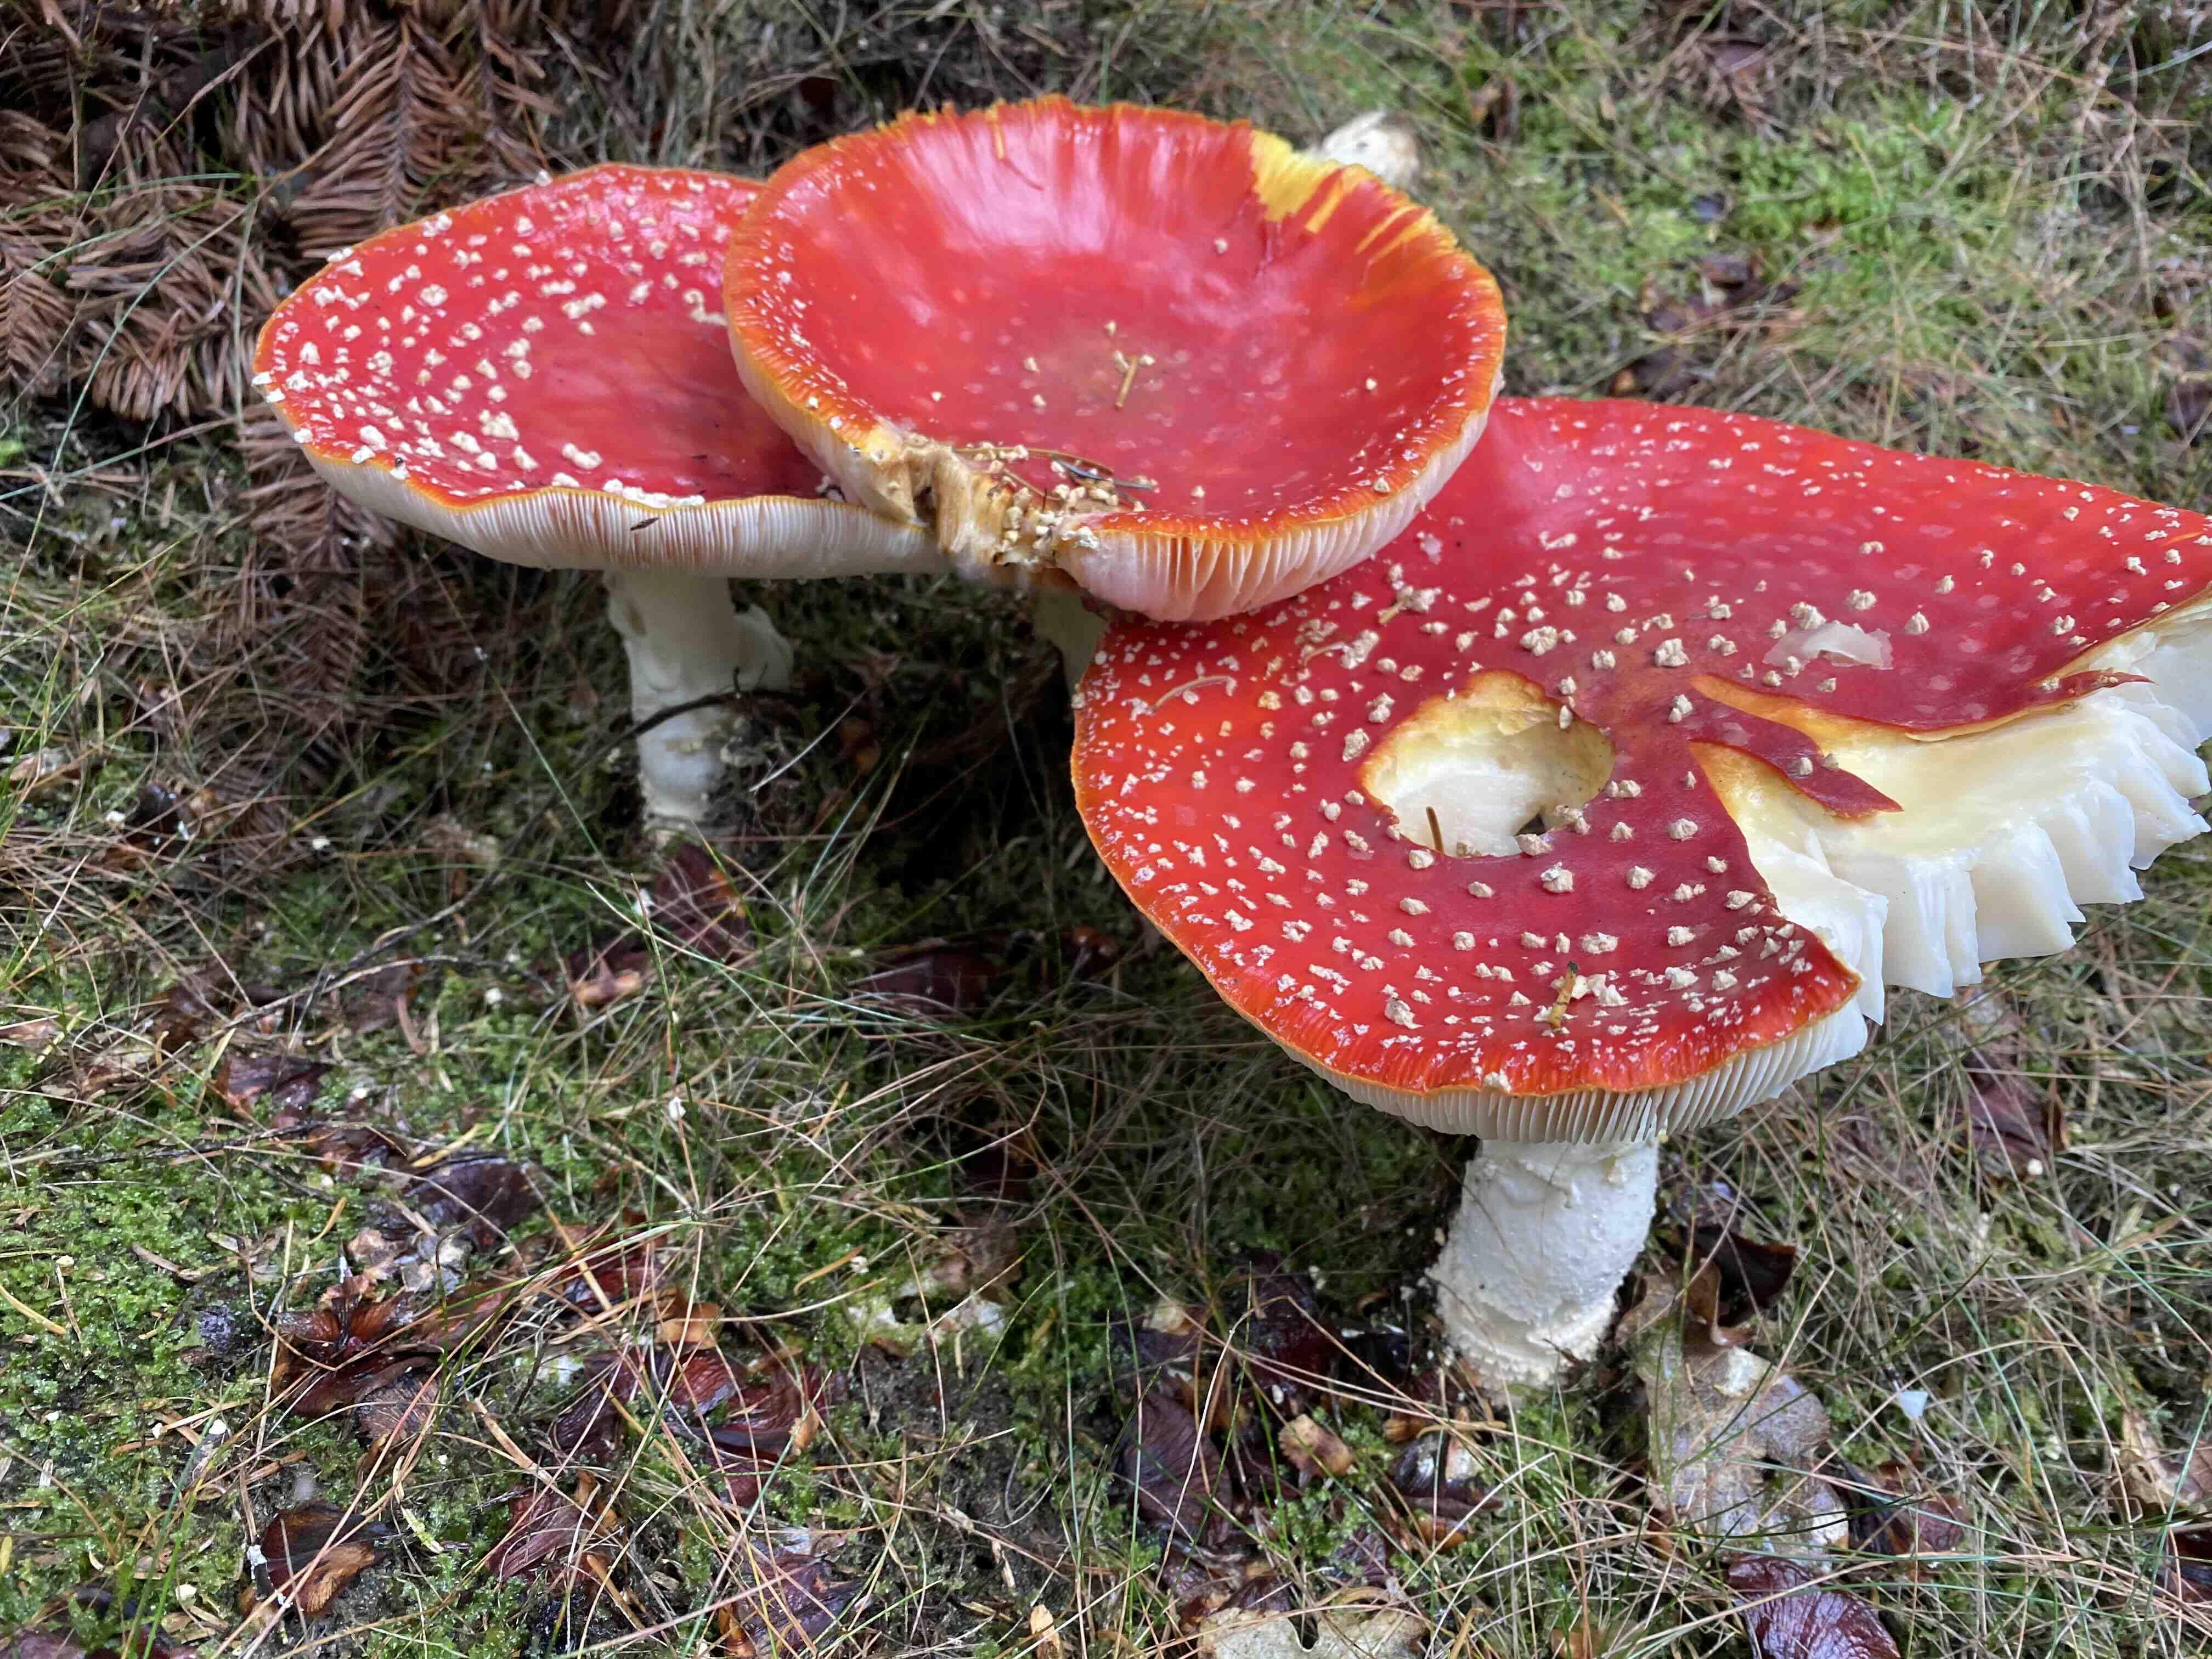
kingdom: Fungi
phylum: Basidiomycota
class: Agaricomycetes
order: Agaricales
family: Amanitaceae
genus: Amanita
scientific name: Amanita muscaria
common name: rød fluesvamp
